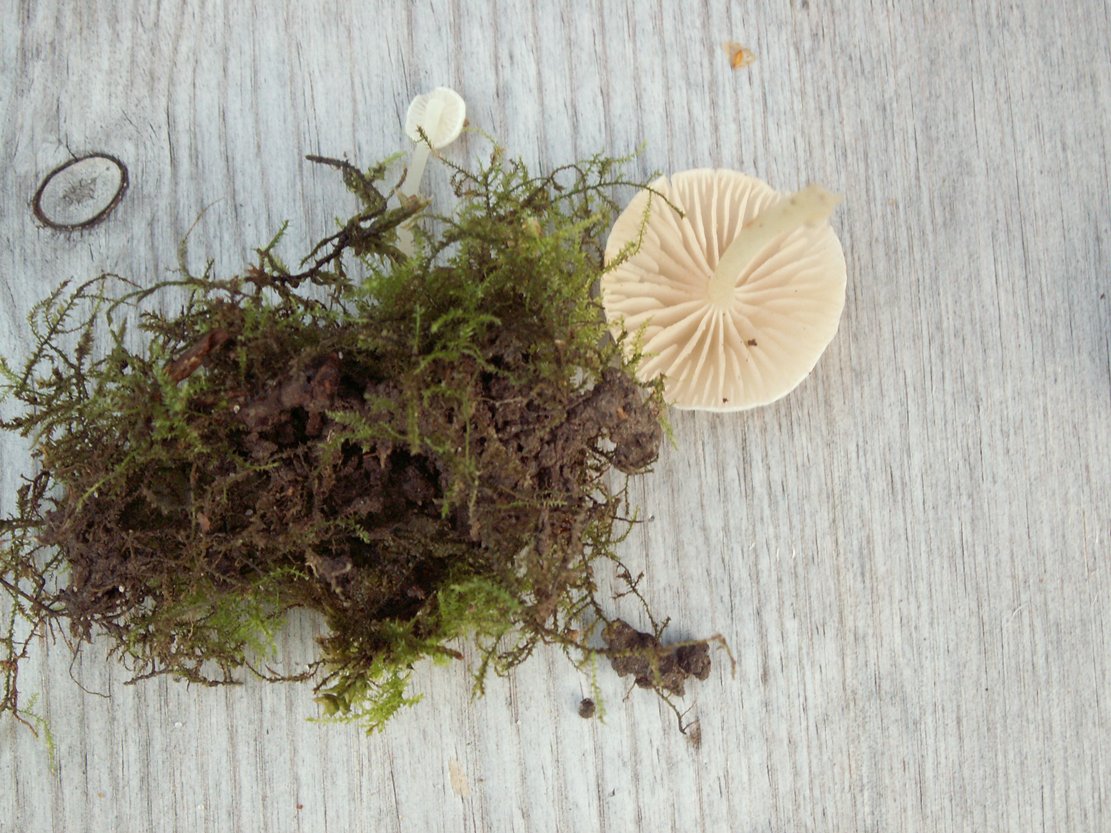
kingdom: Fungi
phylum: Basidiomycota
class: Agaricomycetes
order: Agaricales
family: Entolomataceae
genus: Entoloma
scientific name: Entoloma sericellum
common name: silkehvid rødblad
